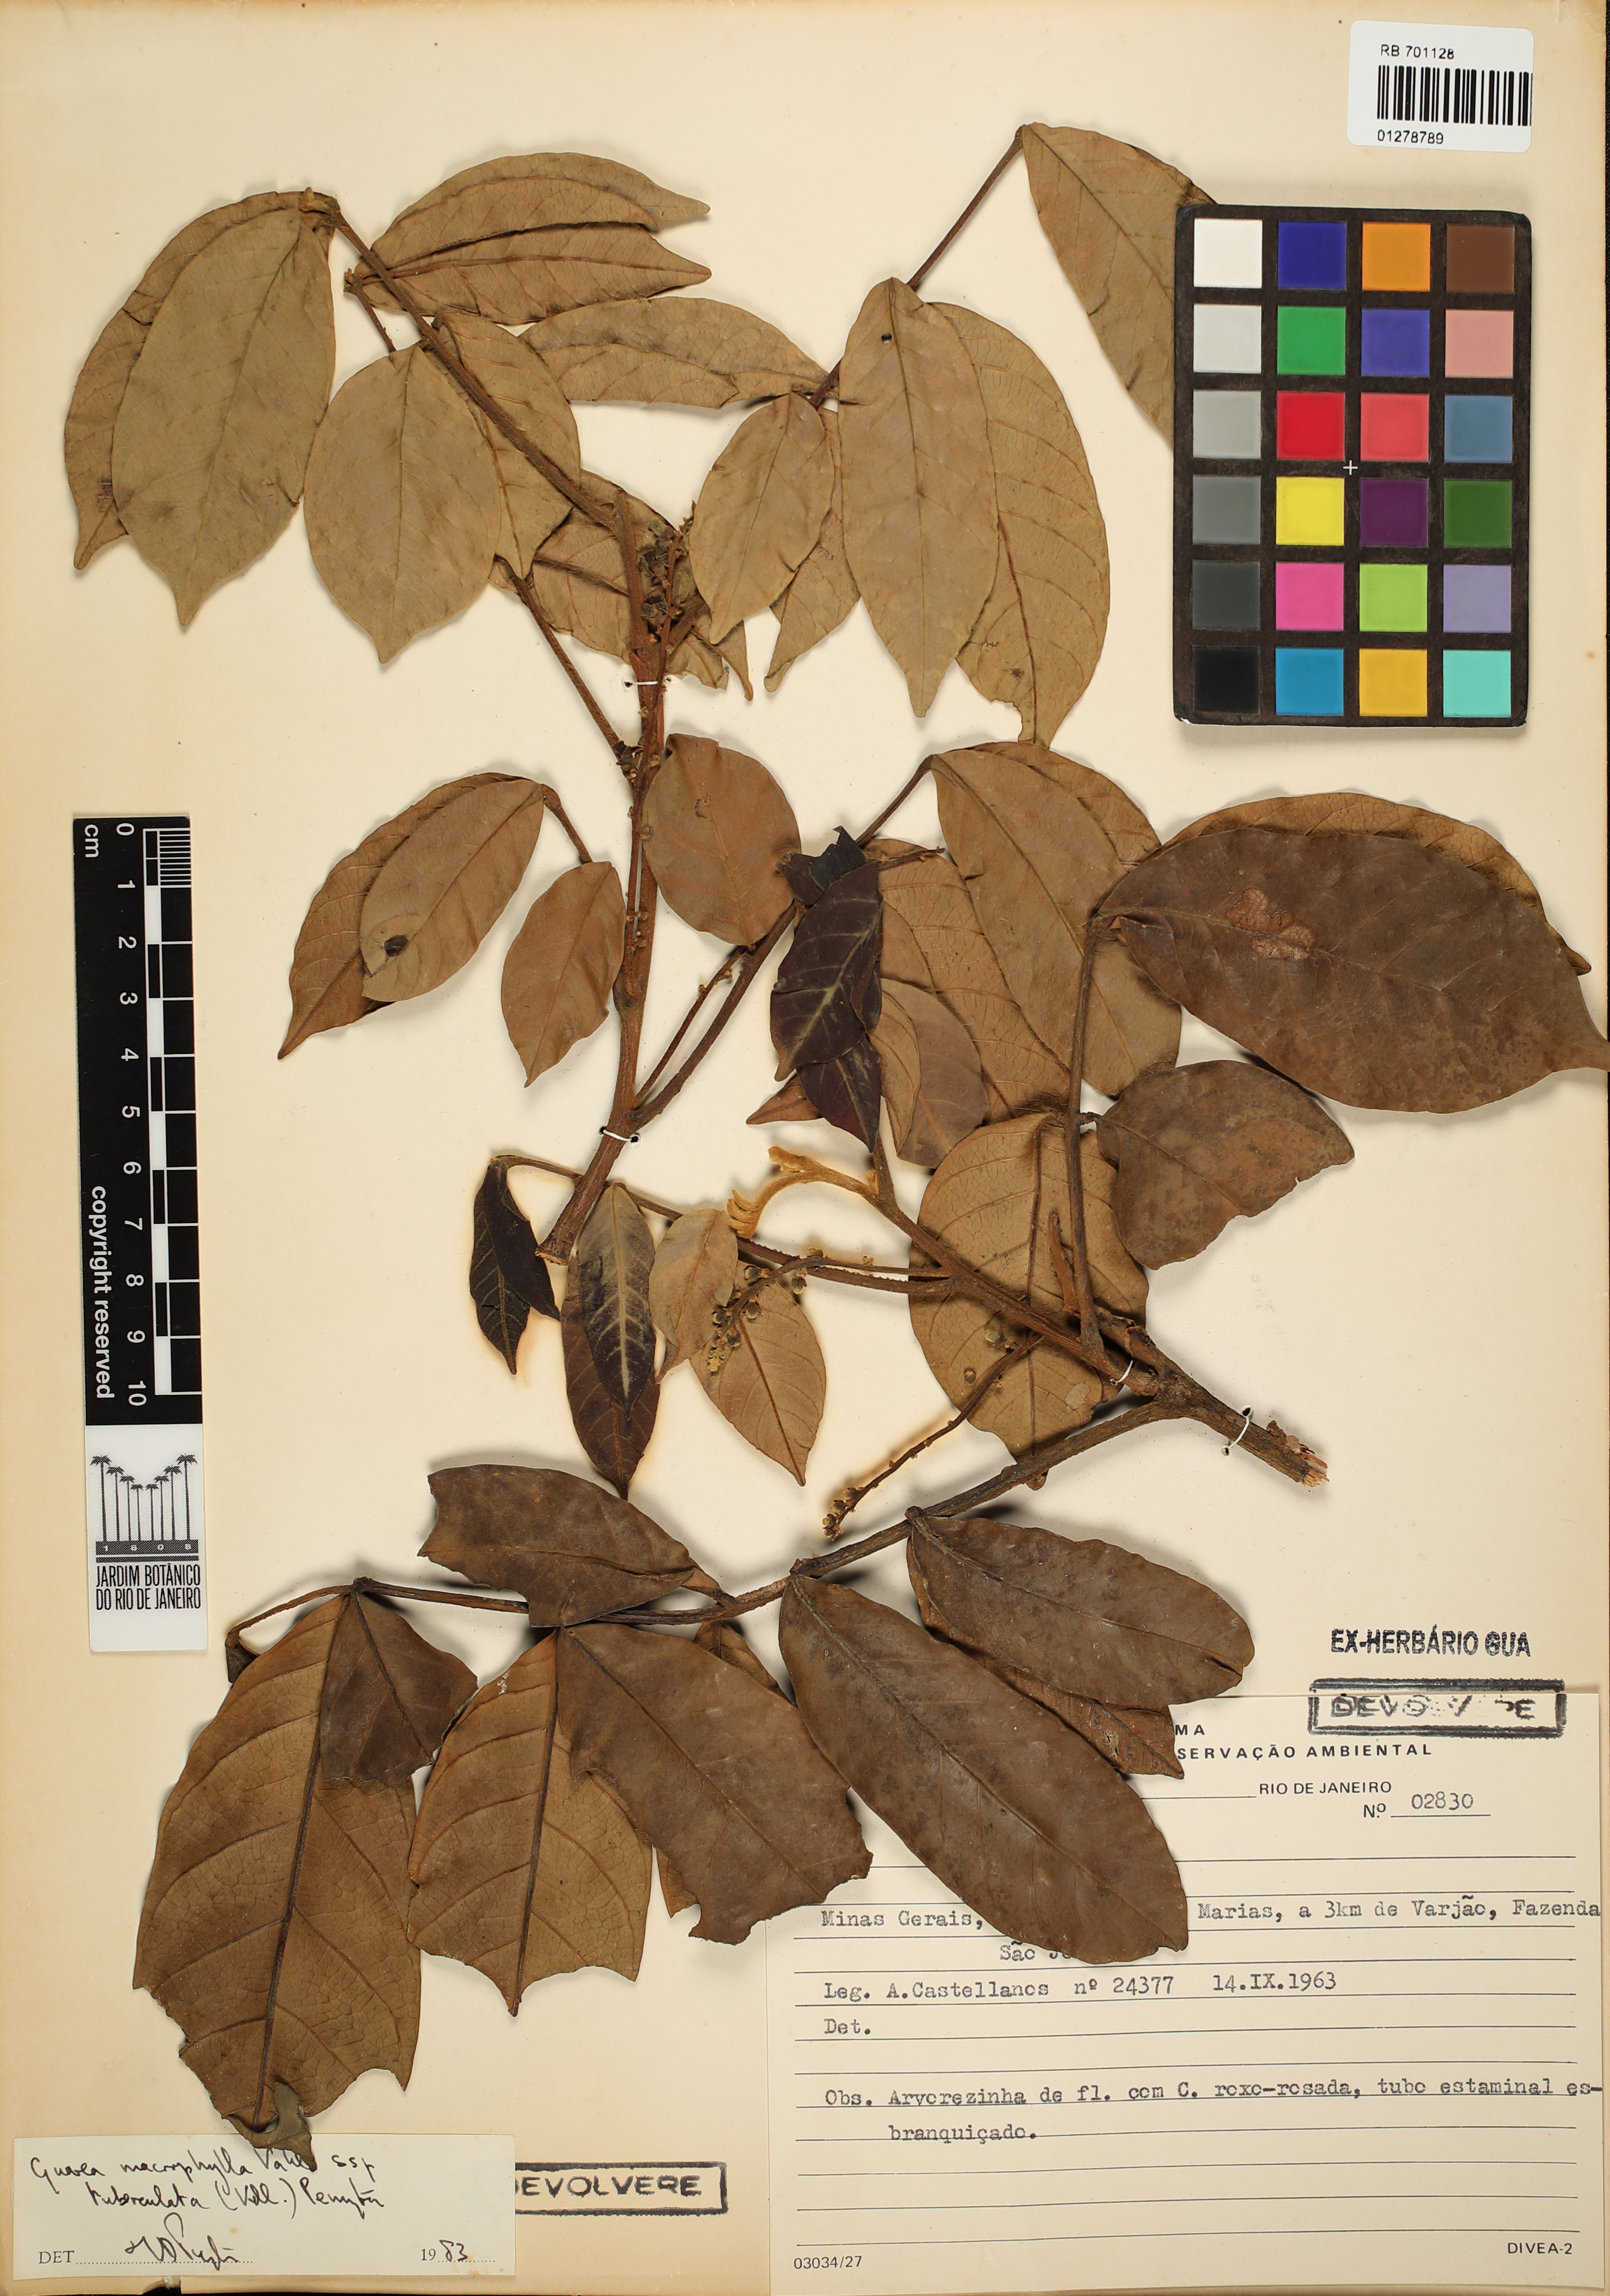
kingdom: Plantae
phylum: Tracheophyta
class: Magnoliopsida
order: Sapindales
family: Meliaceae
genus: Guarea
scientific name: Guarea macrophylla
